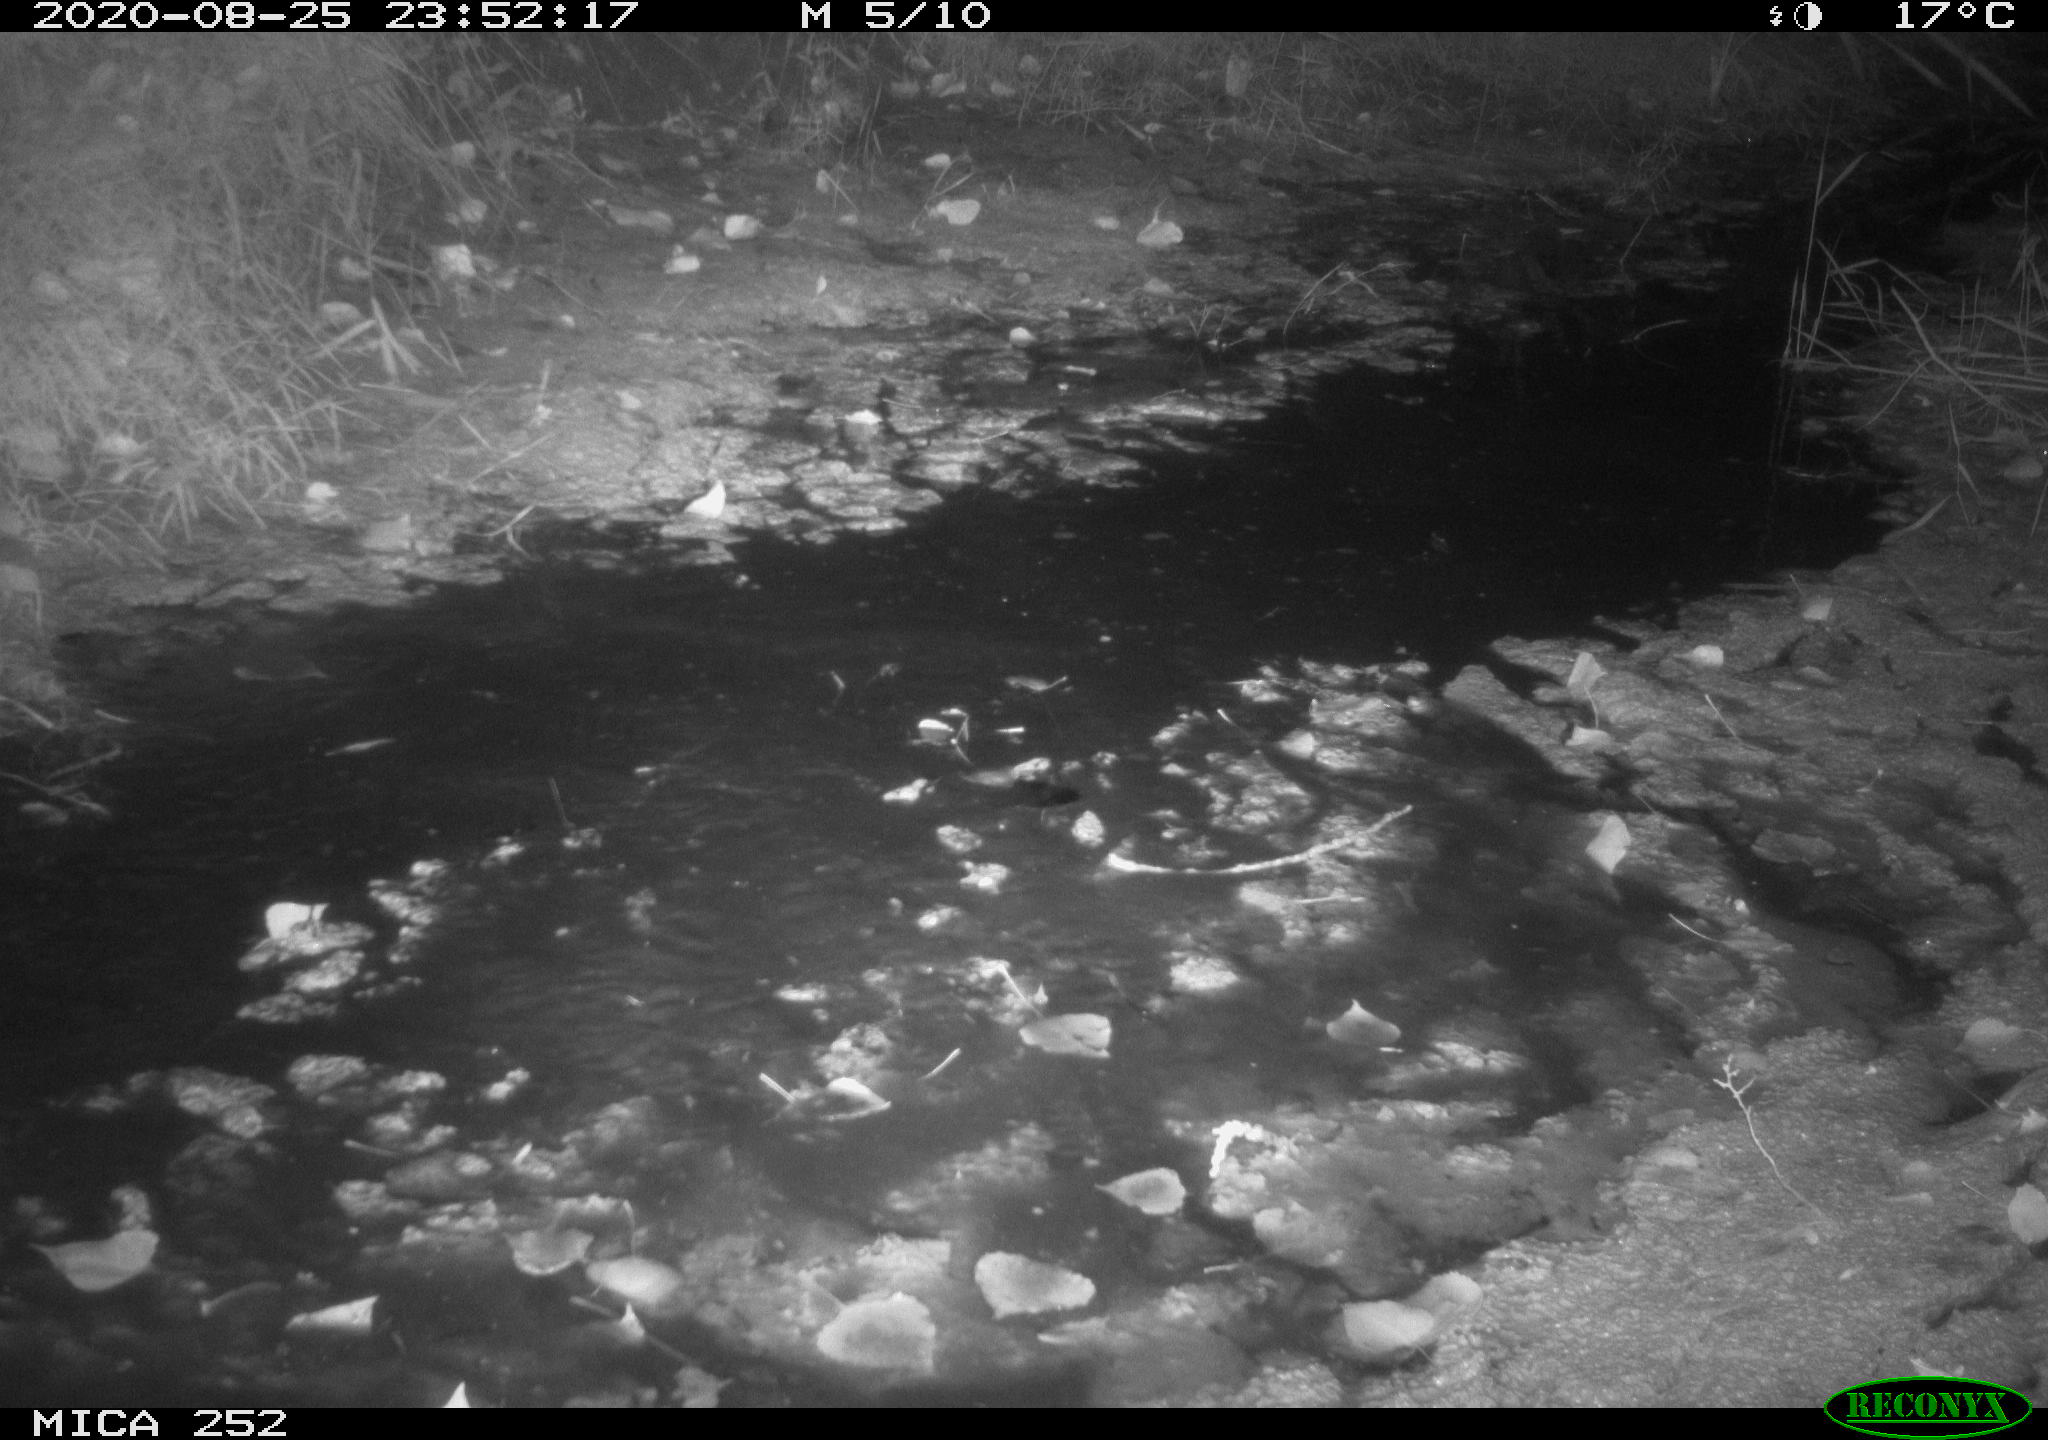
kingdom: Animalia
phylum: Chordata
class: Mammalia
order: Rodentia
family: Castoridae
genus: Castor
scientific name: Castor fiber
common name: Eurasian beaver
